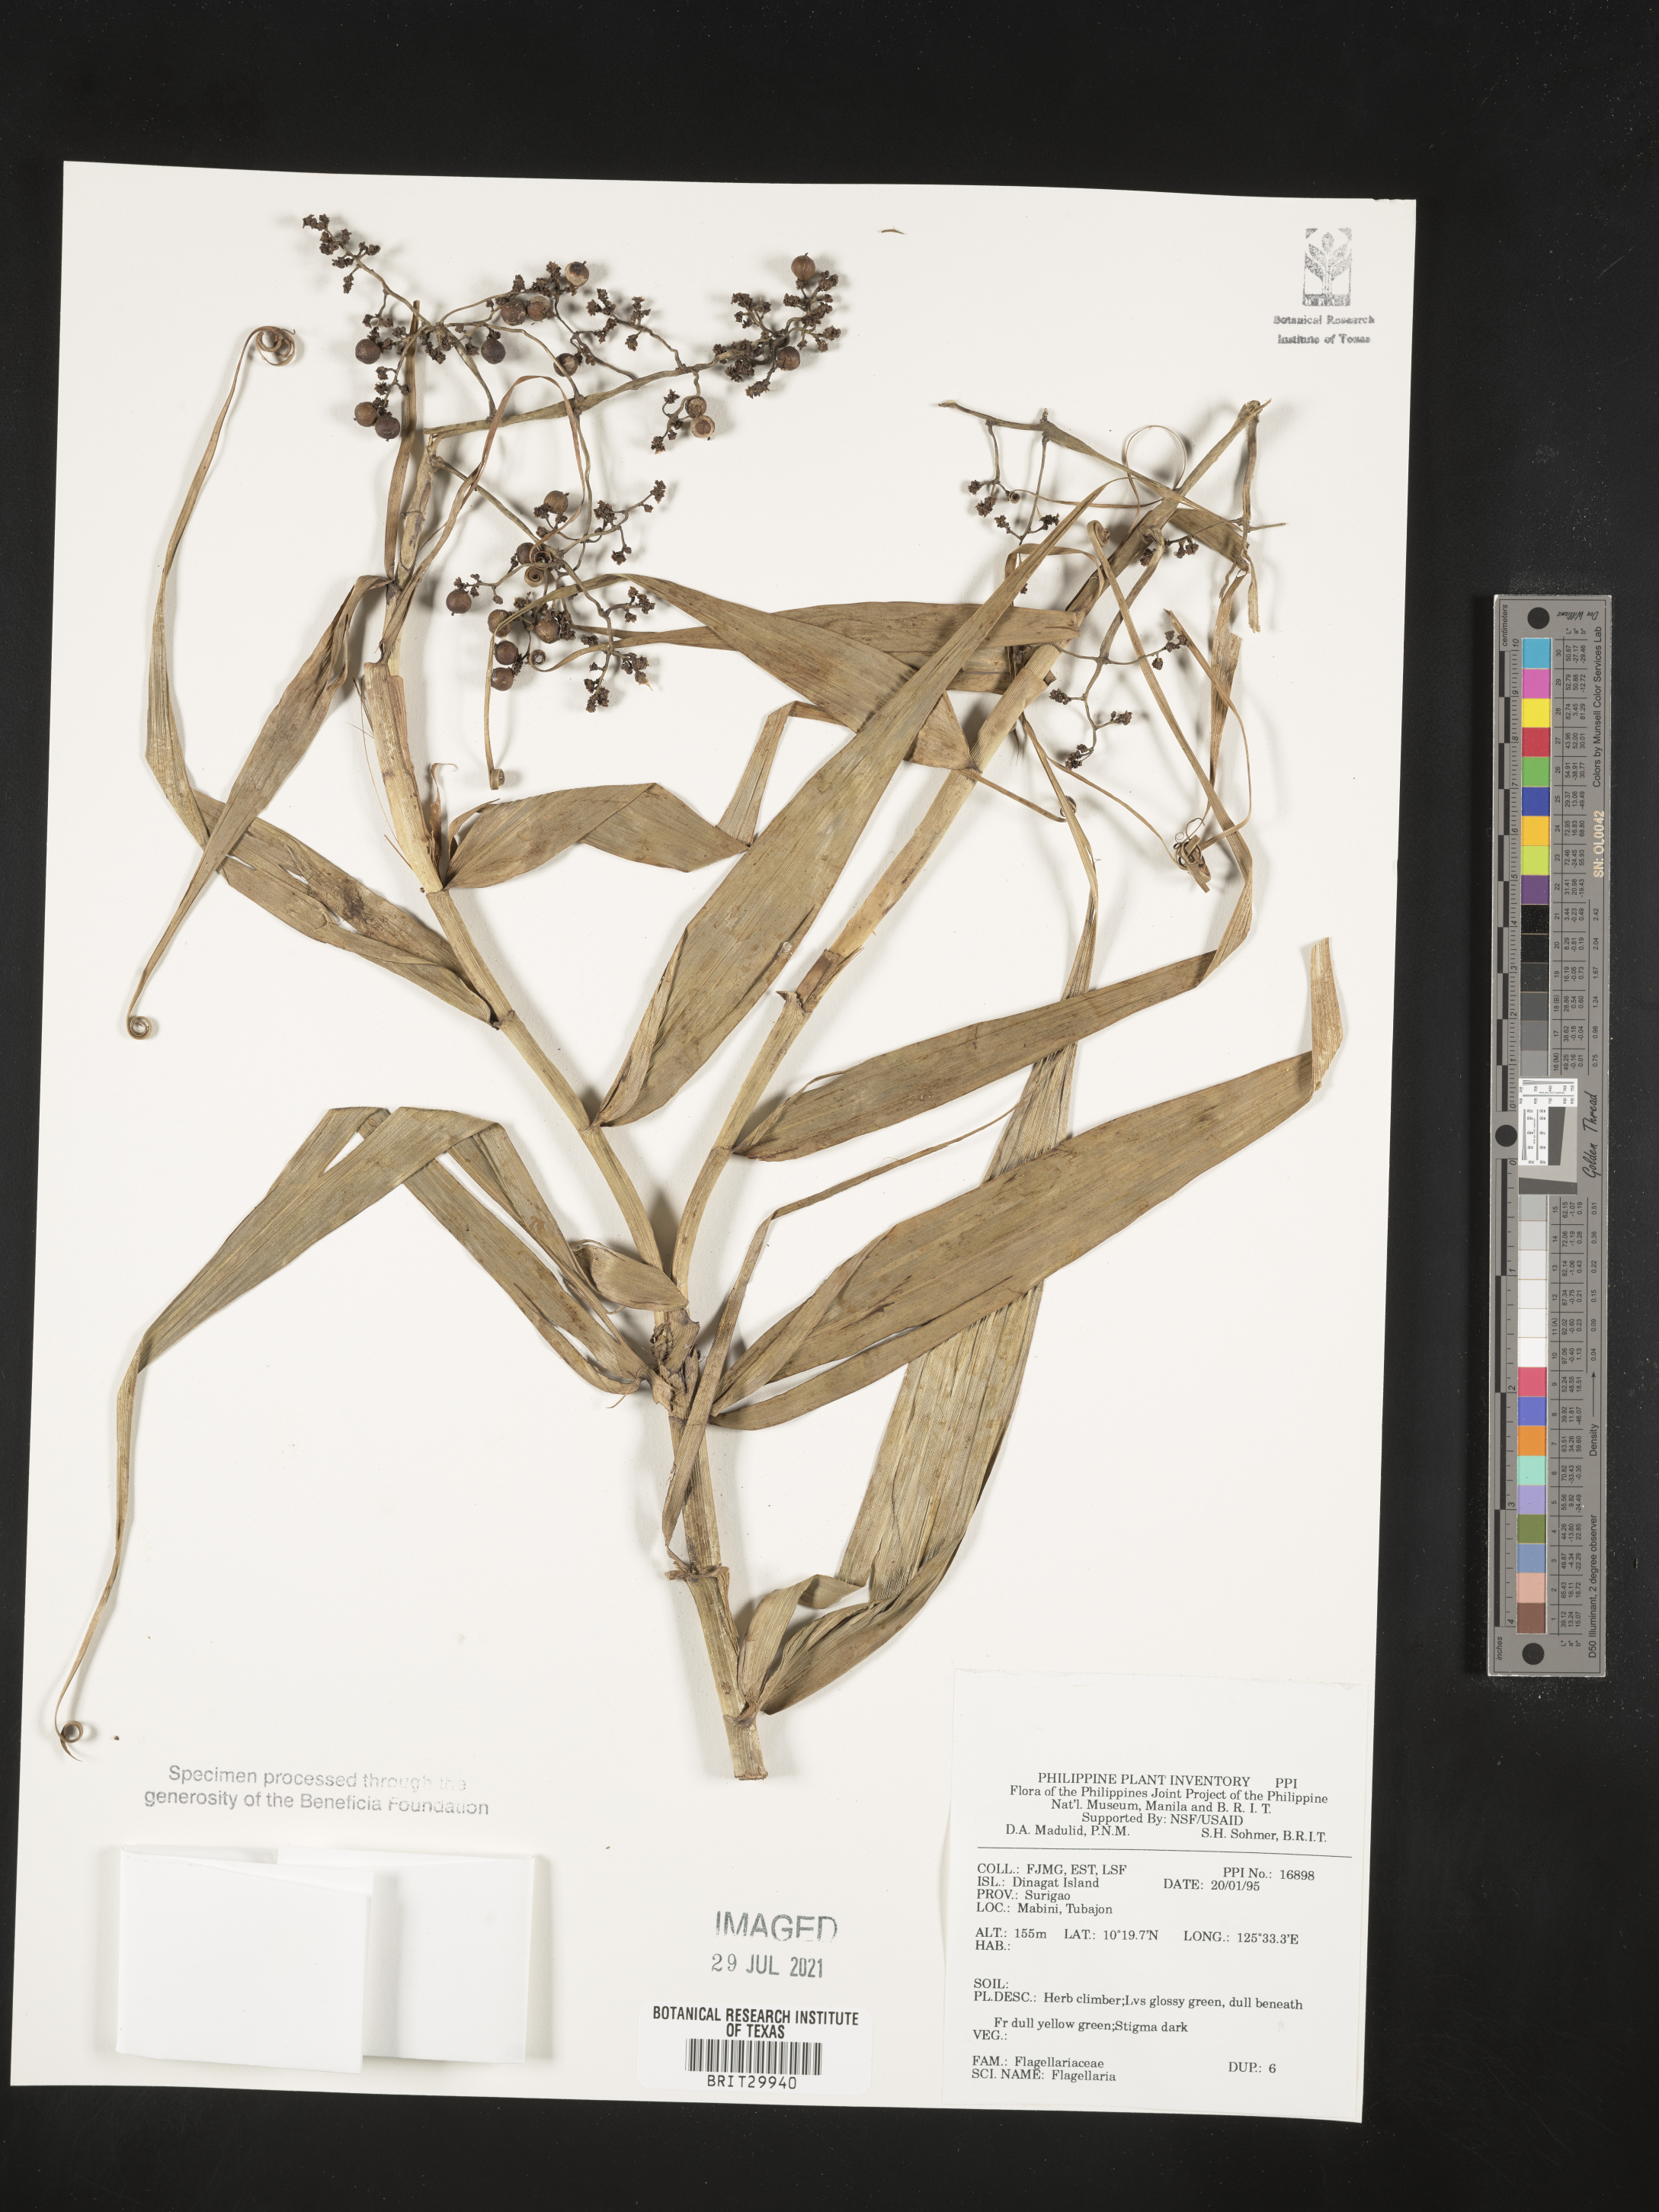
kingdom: Plantae
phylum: Tracheophyta
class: Liliopsida
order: Poales
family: Flagellariaceae
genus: Flagellaria
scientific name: Flagellaria
